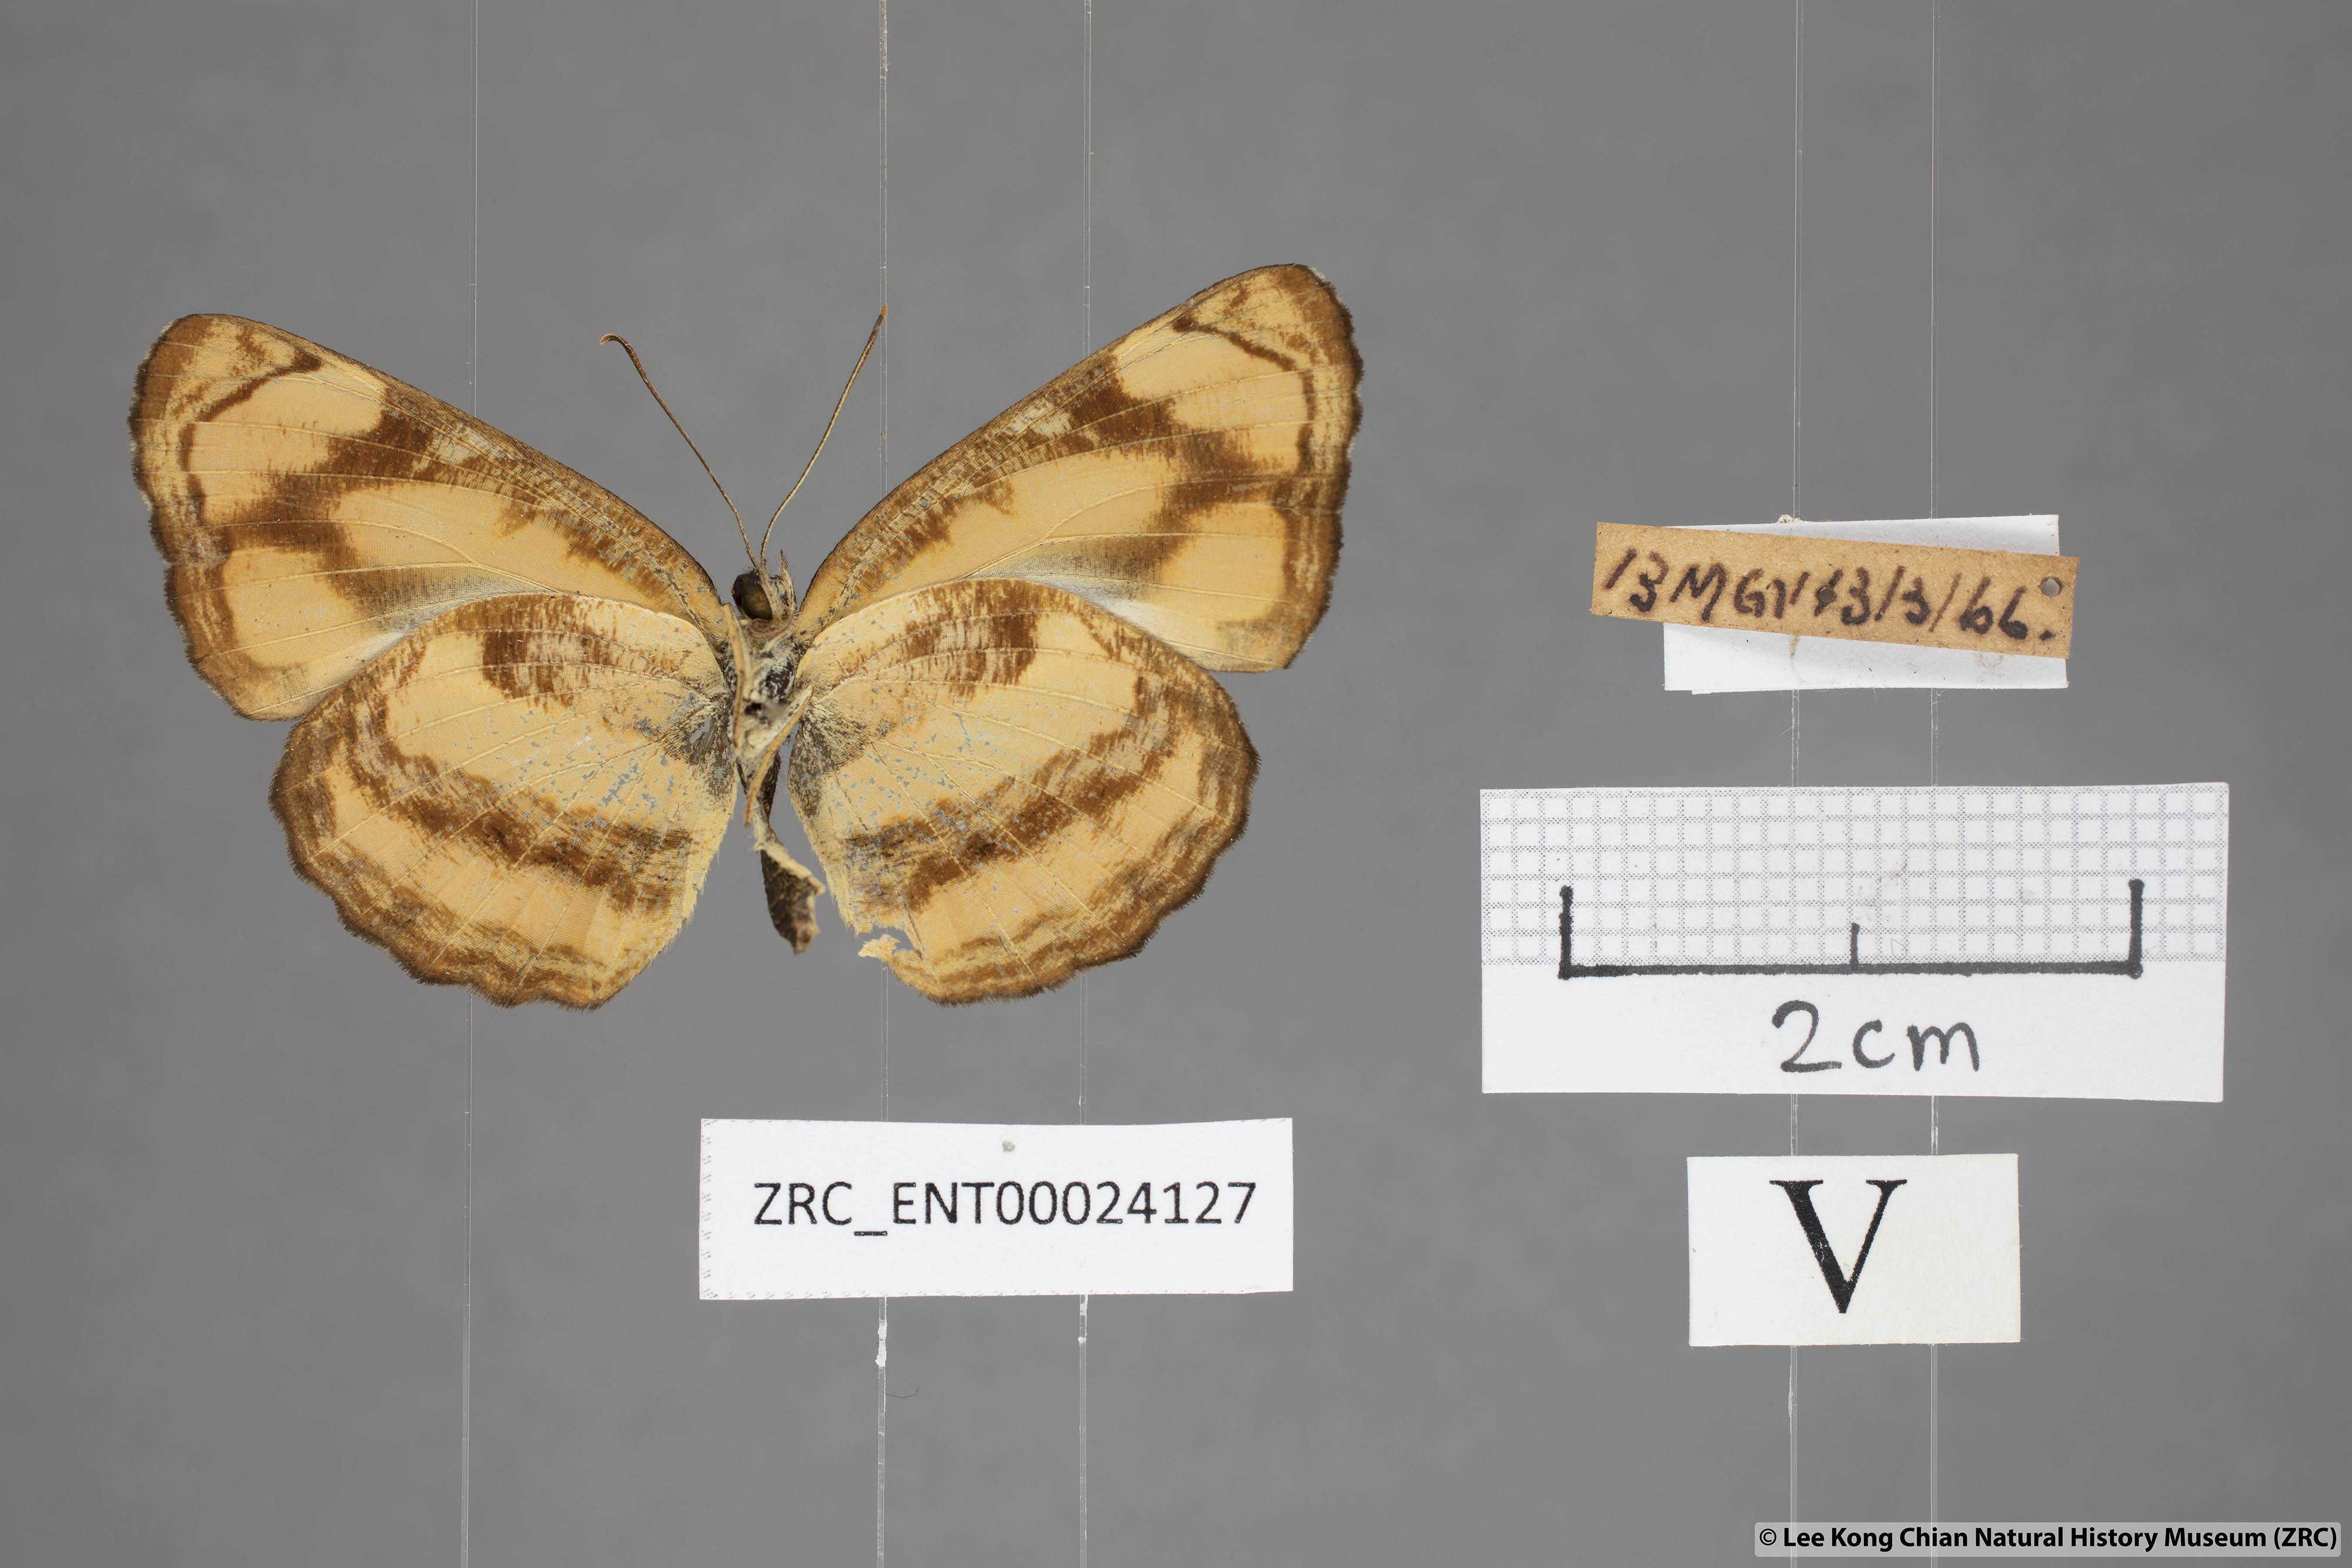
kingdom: Animalia
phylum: Arthropoda
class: Insecta
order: Lepidoptera
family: Nymphalidae
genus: Pantoporia
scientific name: Pantoporia hordonia
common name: Common lascar
